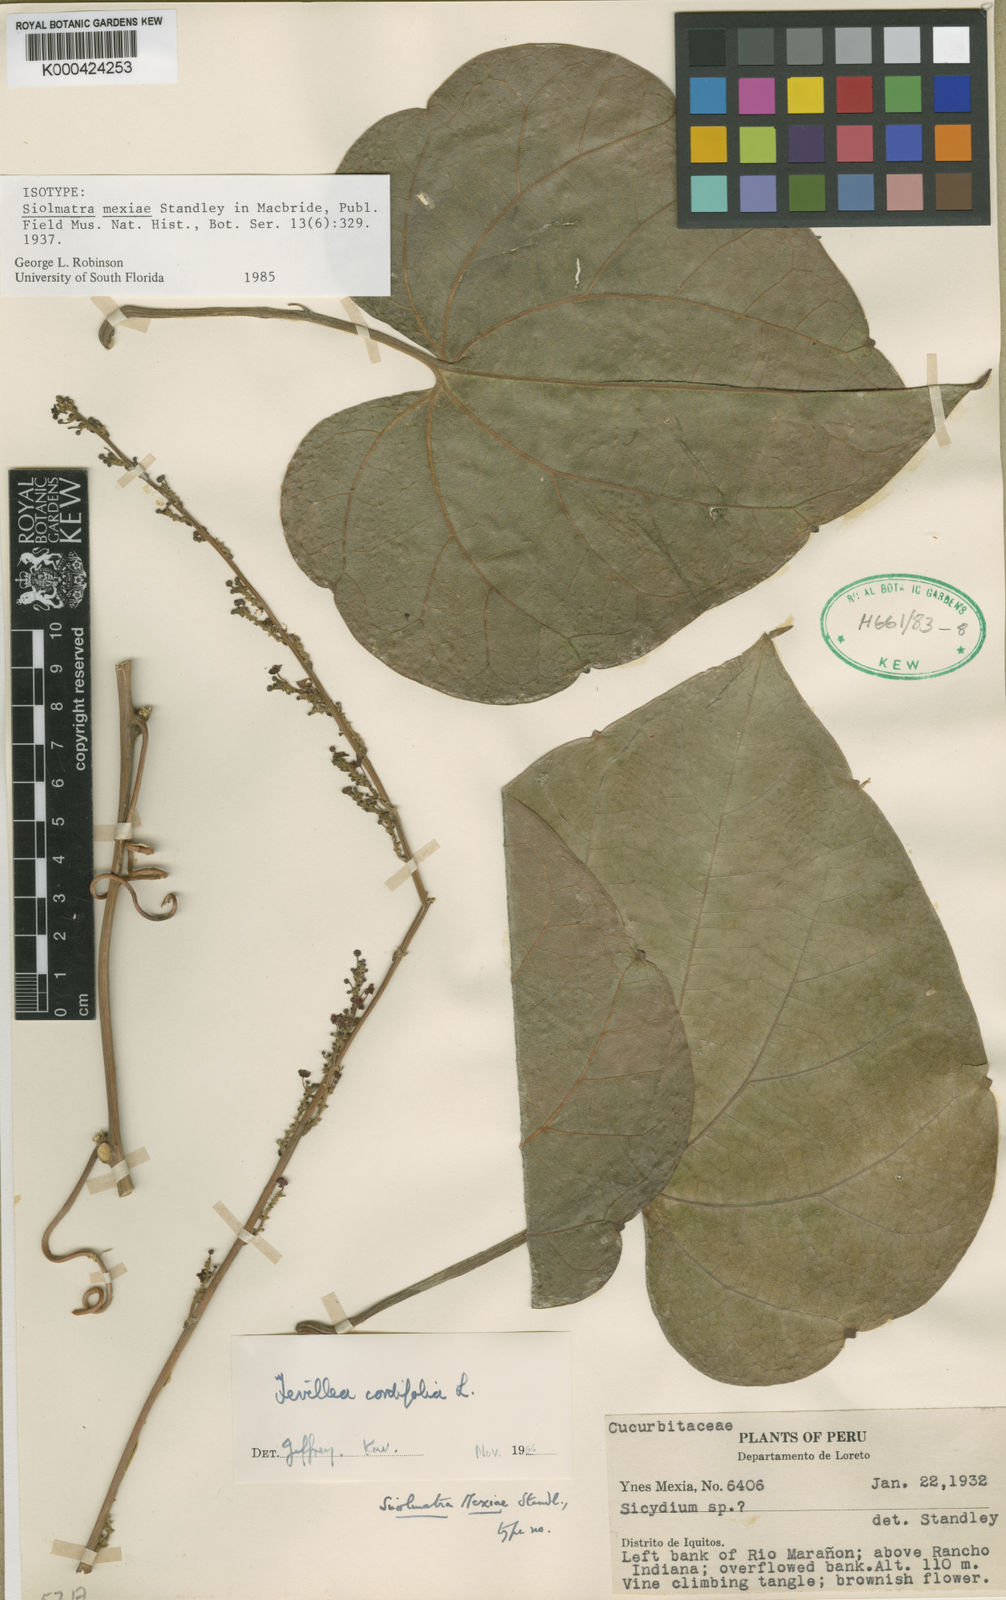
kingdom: Plantae
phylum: Tracheophyta
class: Magnoliopsida
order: Cucurbitales
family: Cucurbitaceae
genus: Fevillea
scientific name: Fevillea cordifolia
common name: Antidote-vine
